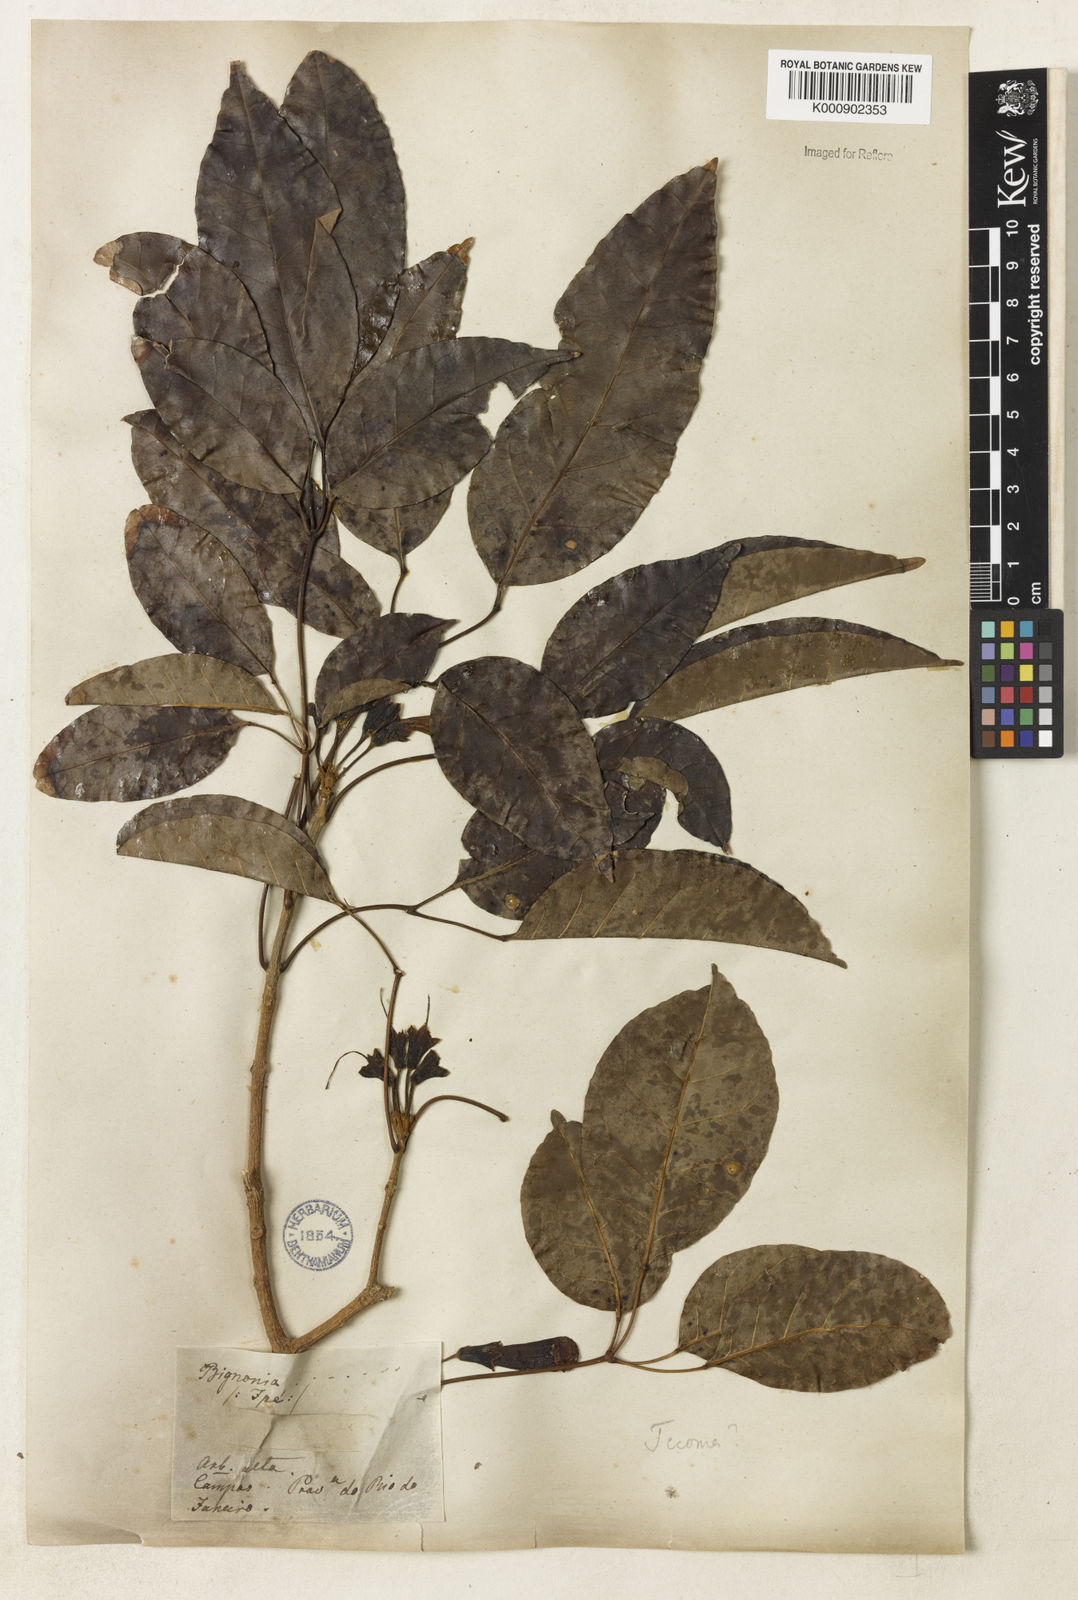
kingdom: Plantae
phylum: Tracheophyta
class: Magnoliopsida
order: Lamiales
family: Bignoniaceae
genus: Handroanthus
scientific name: Handroanthus serratifolius
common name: Yellow ipe
